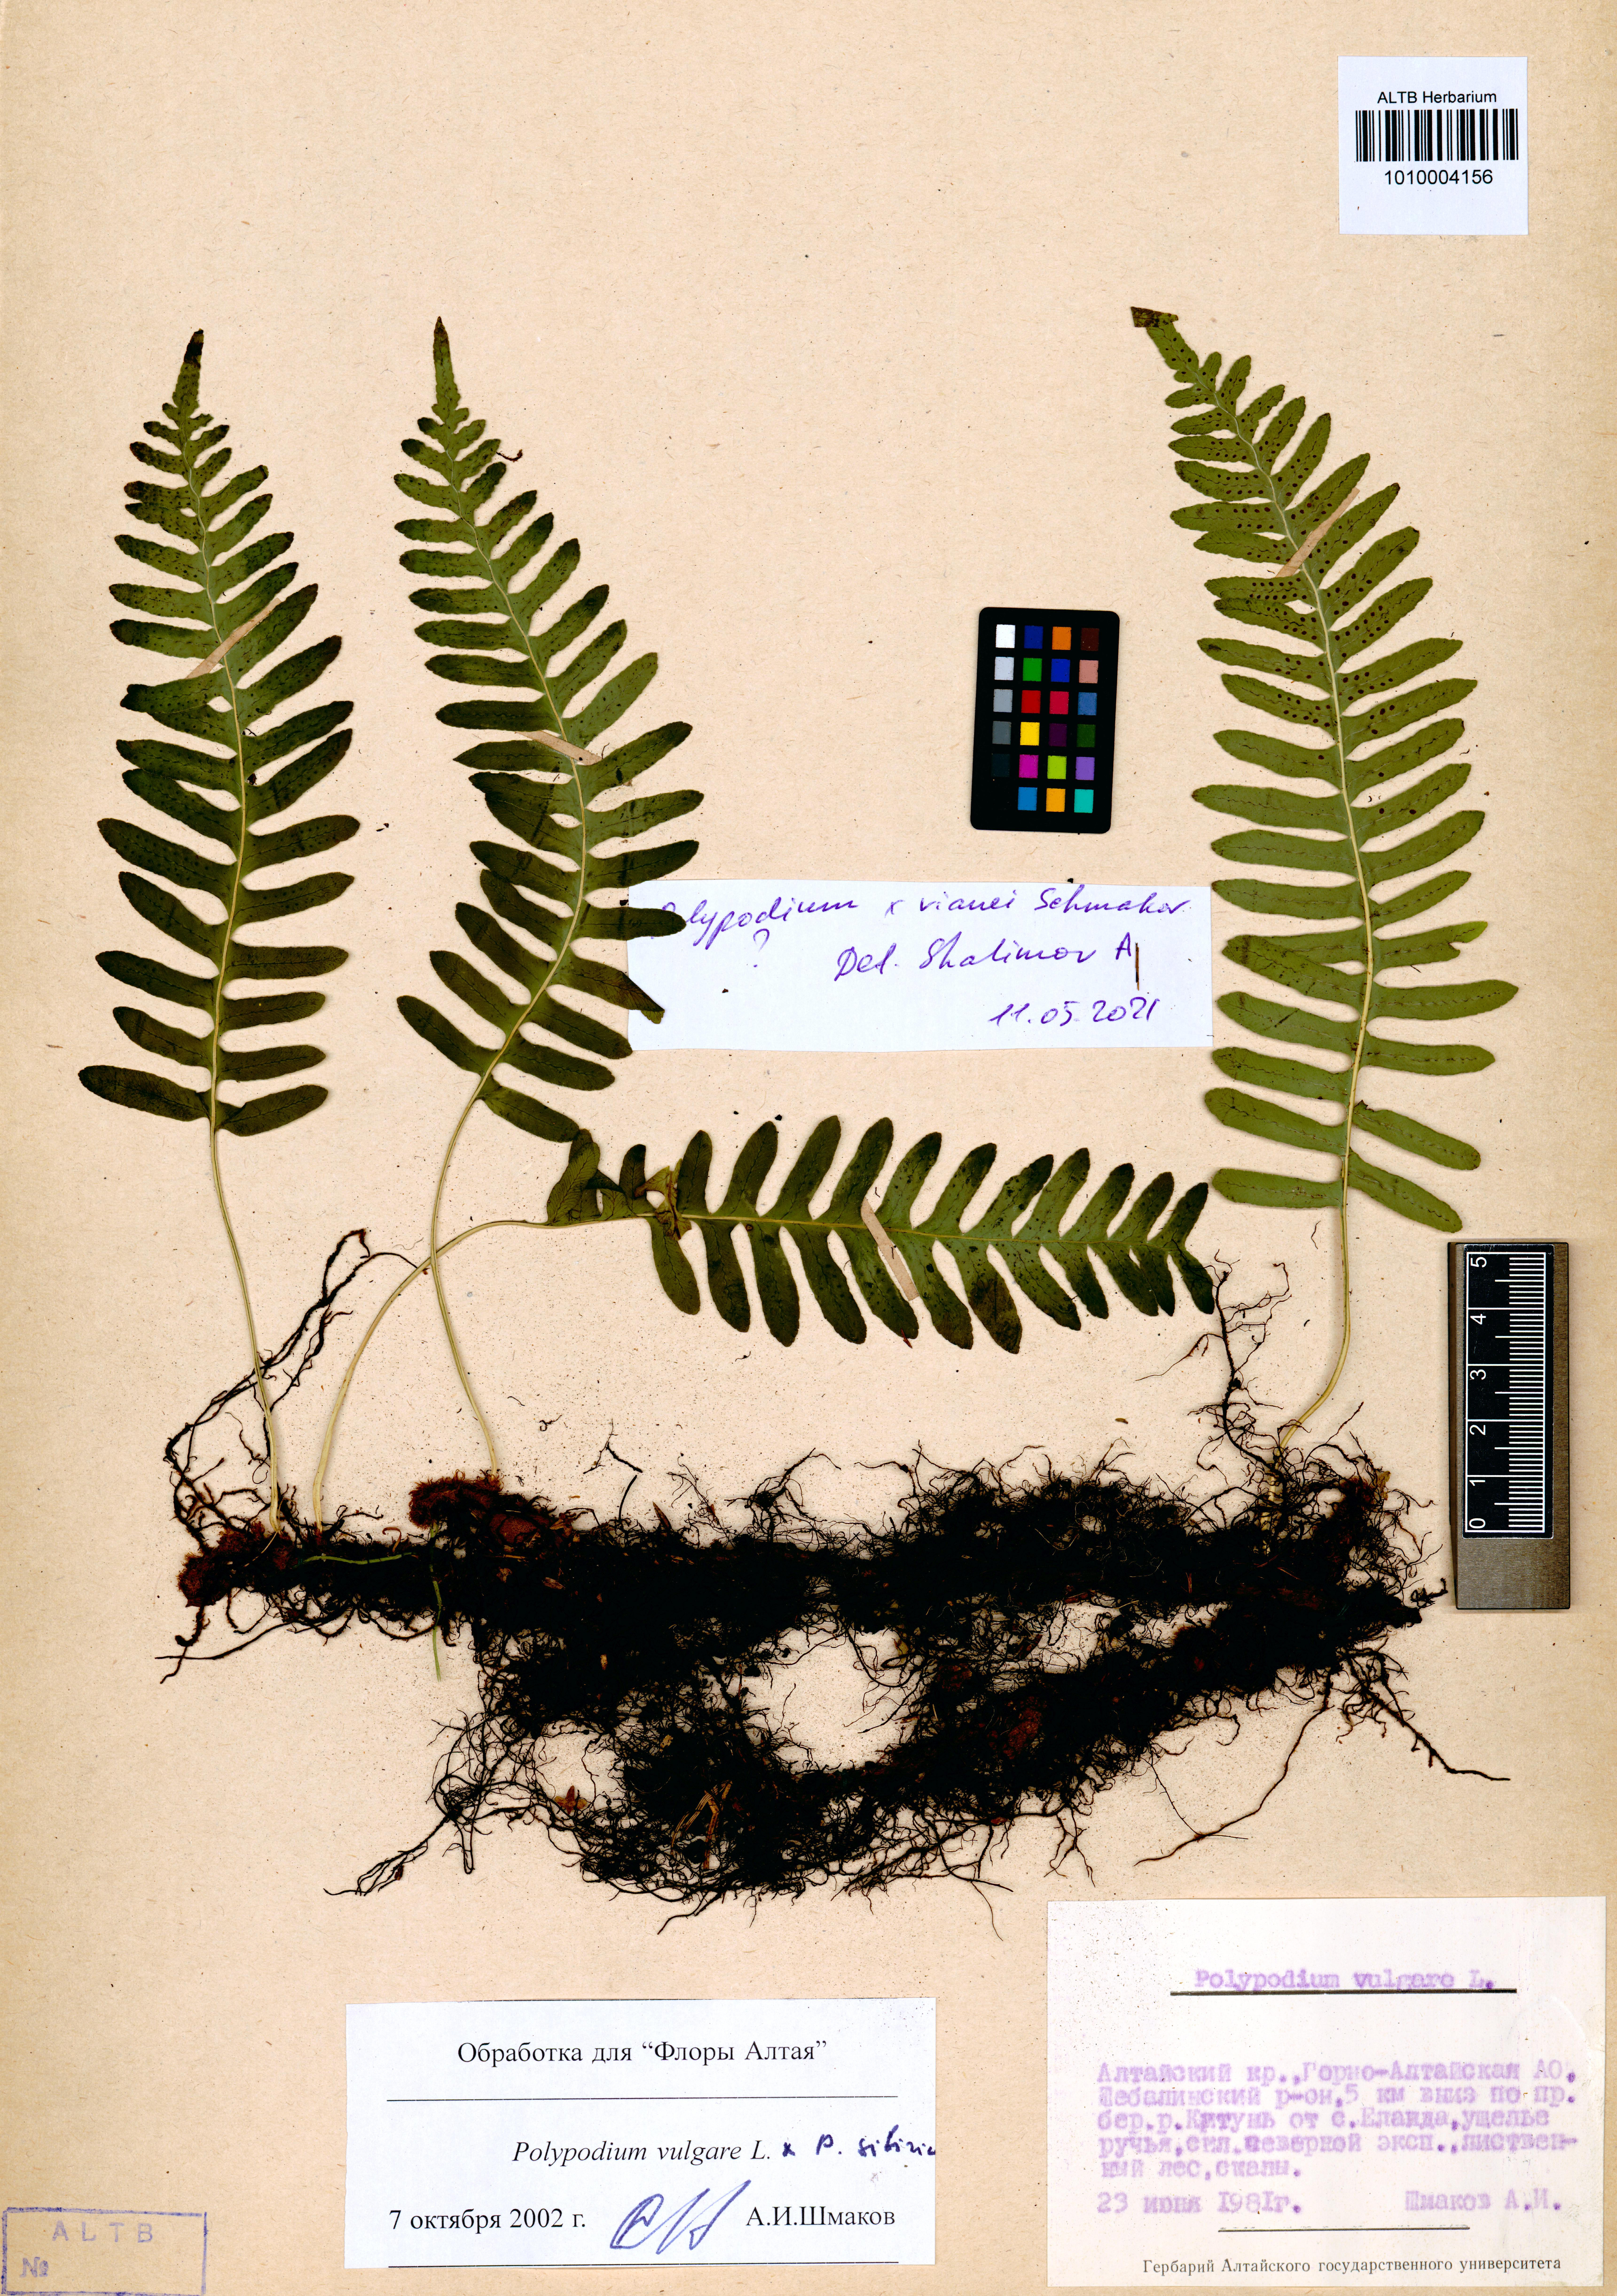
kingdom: Plantae
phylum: Tracheophyta
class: Polypodiopsida
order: Polypodiales
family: Polypodiaceae
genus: Polypodium
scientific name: Polypodium vianei
